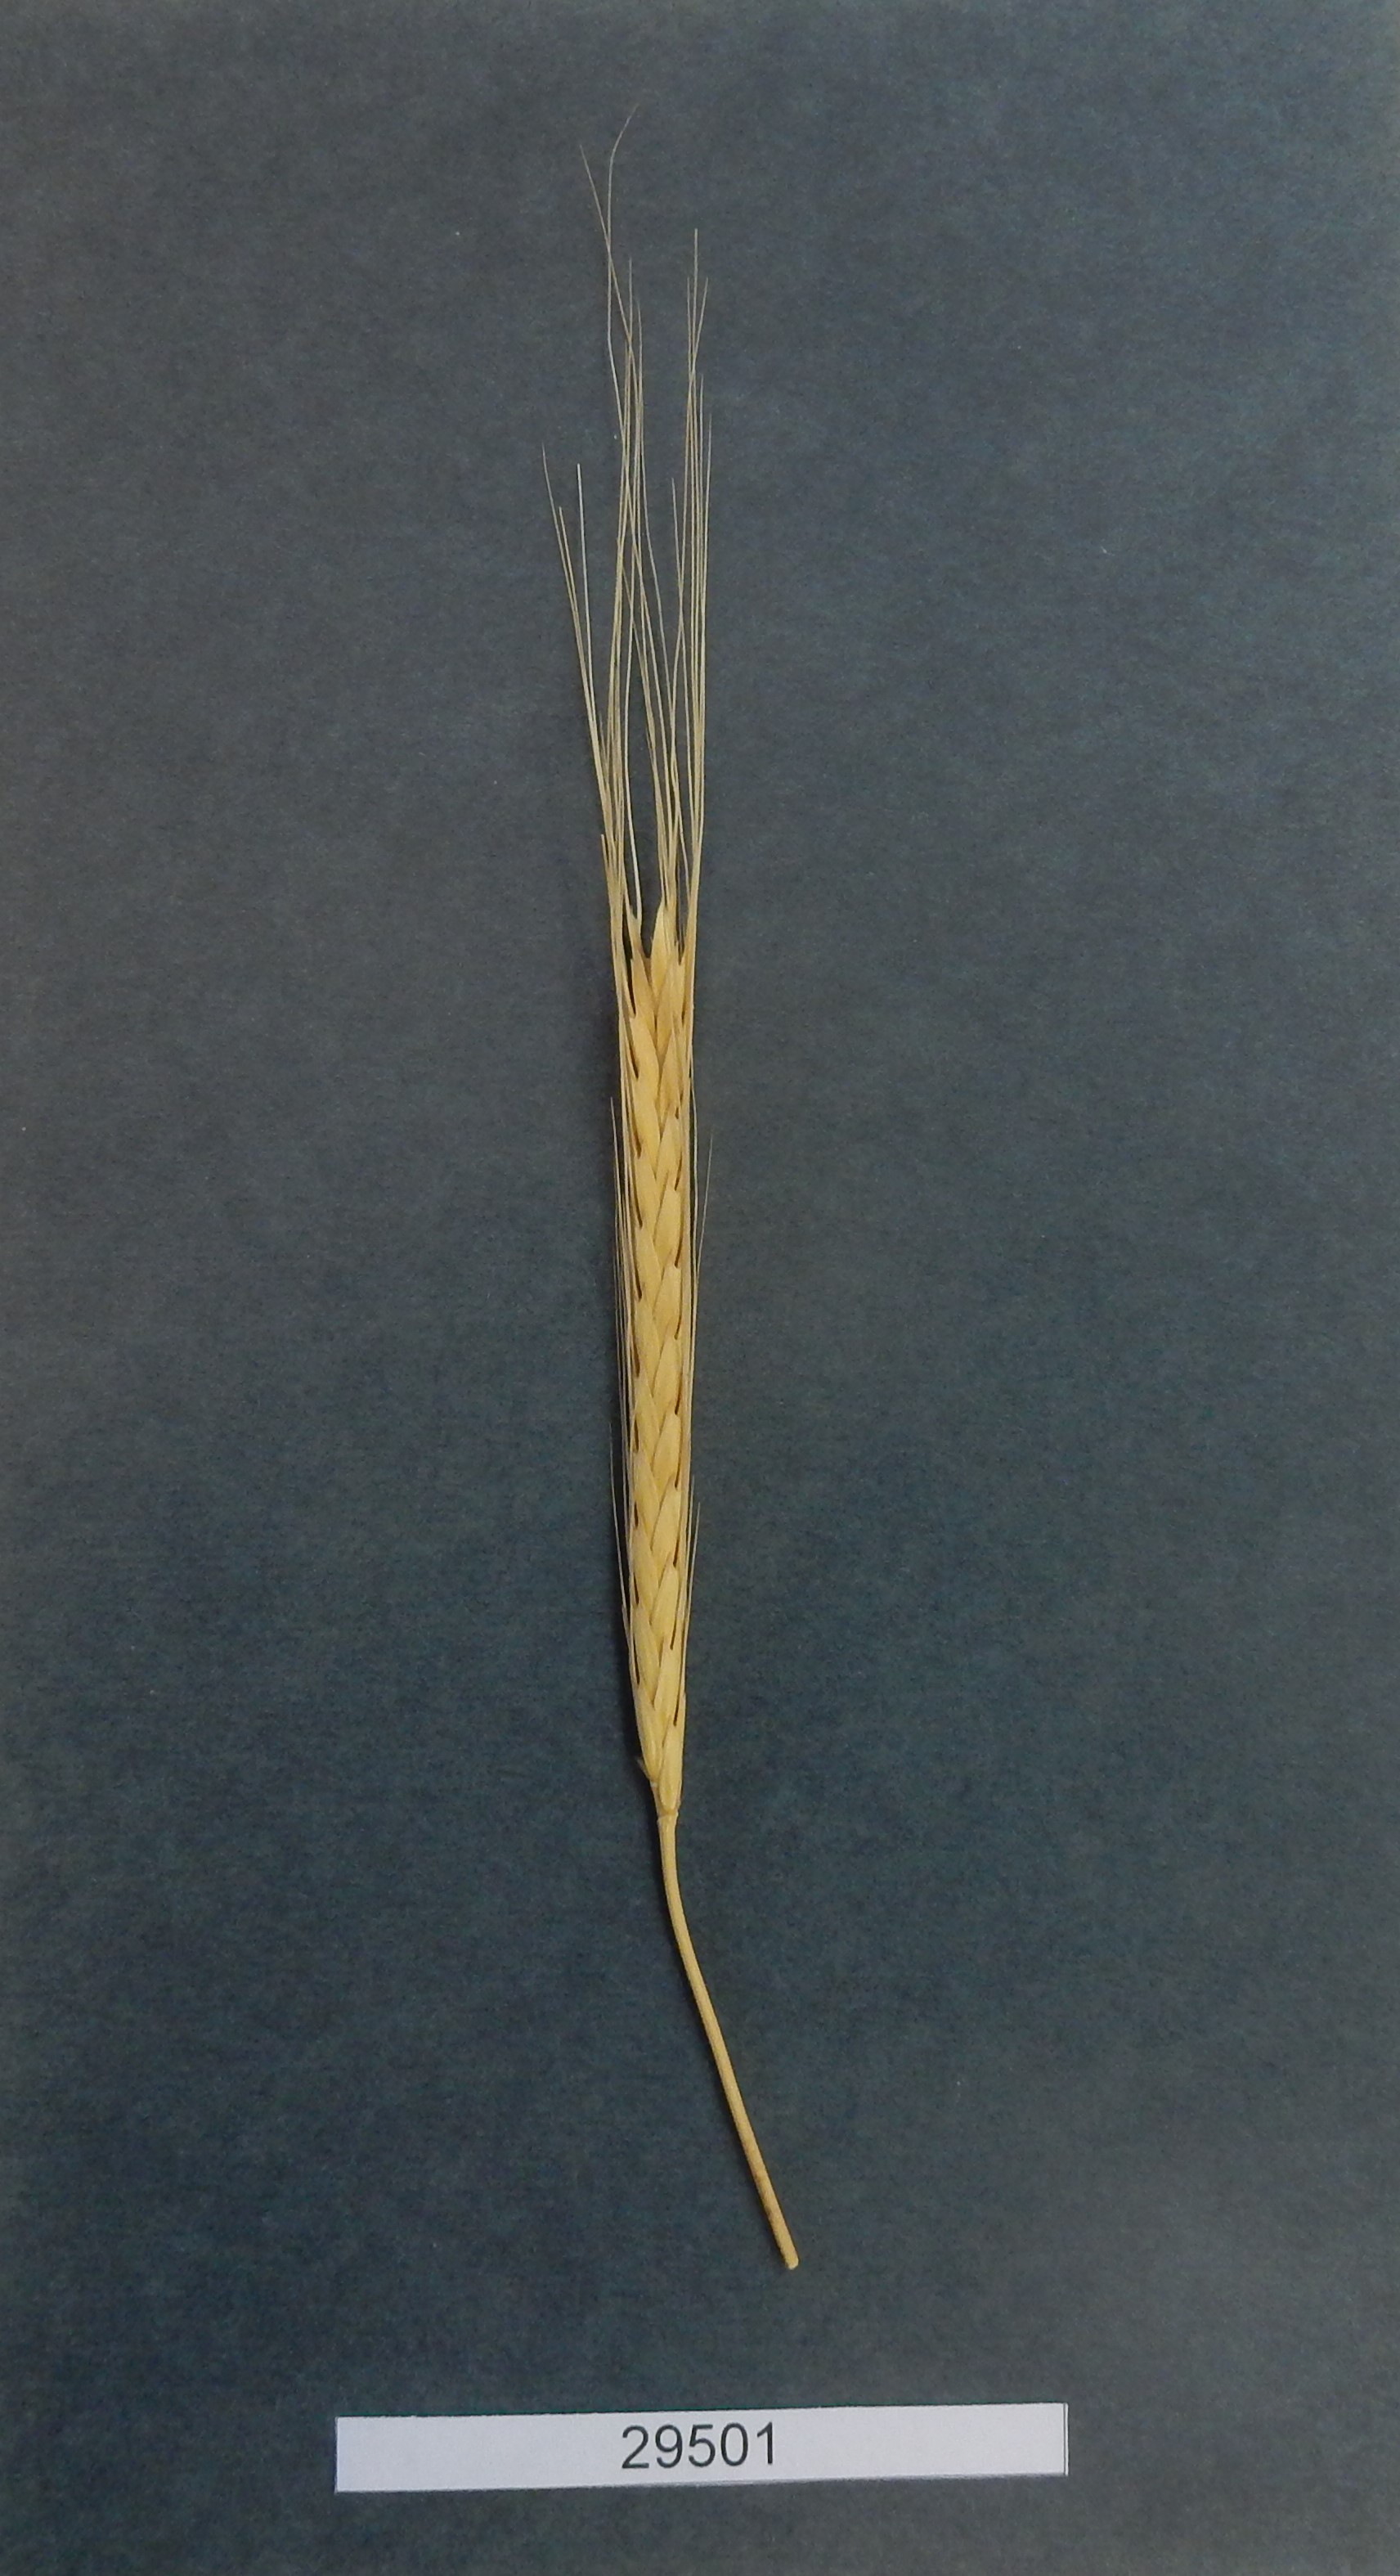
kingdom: Plantae
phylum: Tracheophyta
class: Liliopsida
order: Poales
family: Poaceae
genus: Triticum
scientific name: Triticum urartu
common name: Red wild einkorn
